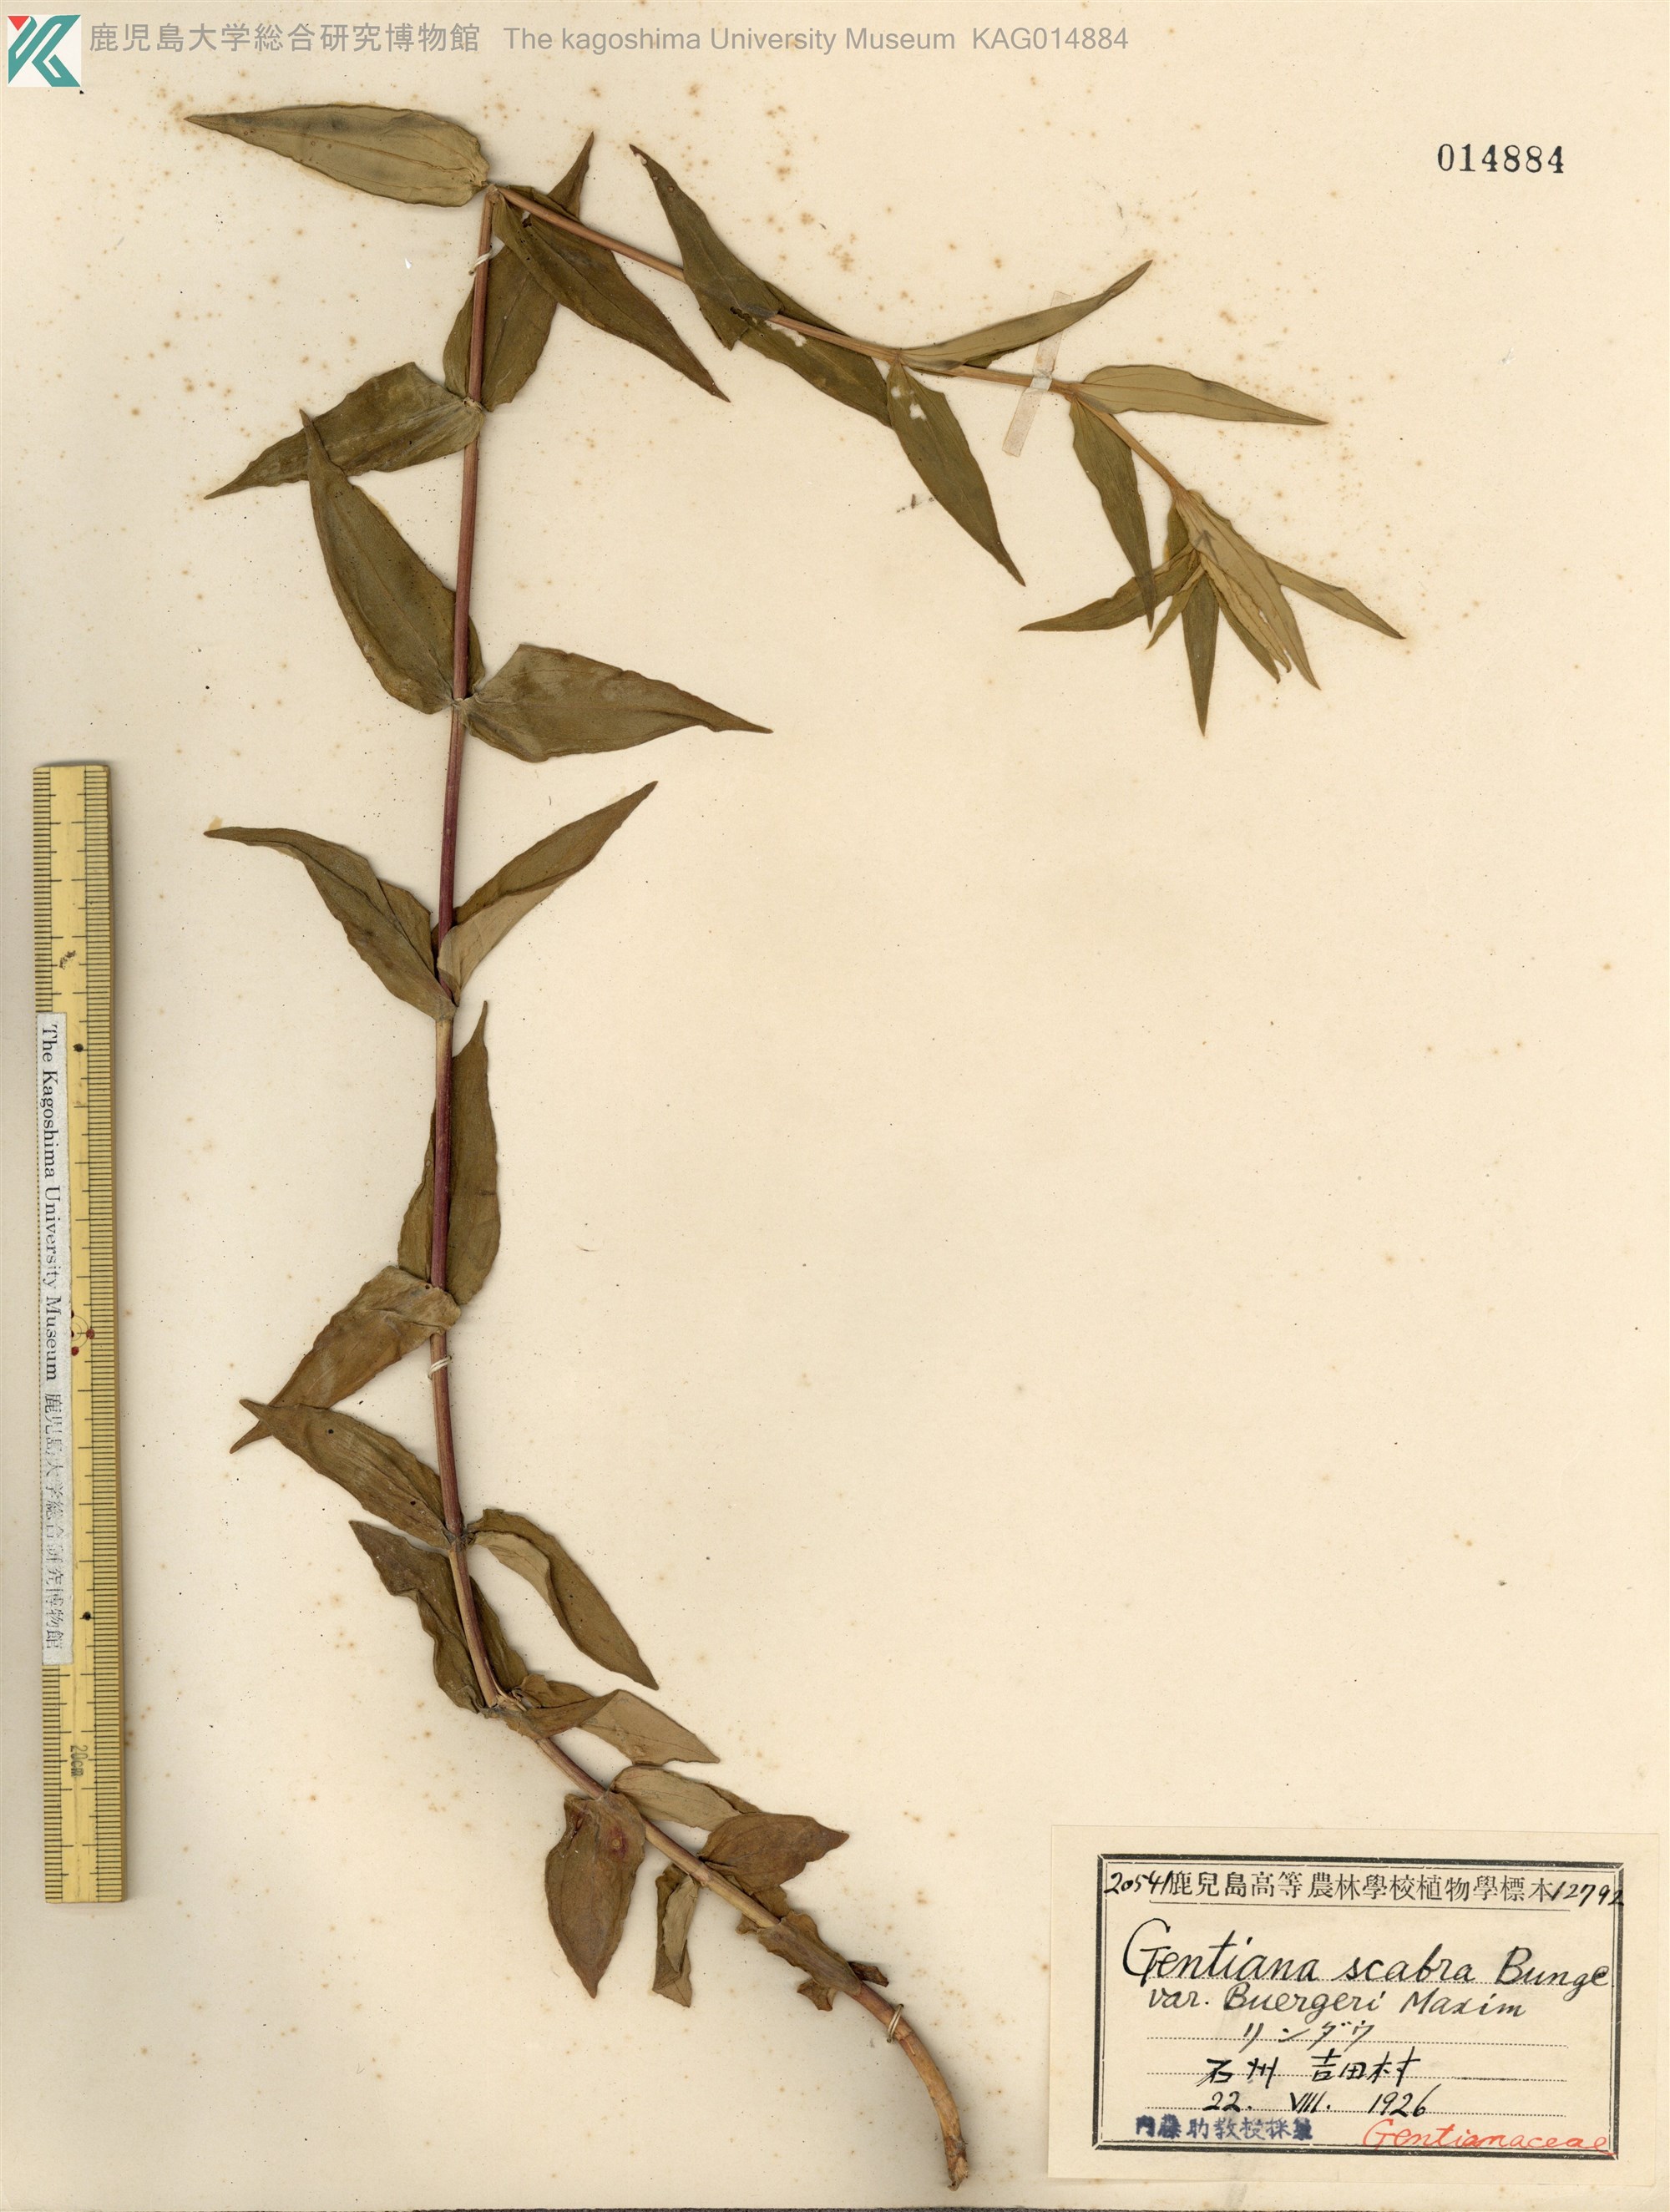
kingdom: Plantae
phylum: Tracheophyta
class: Magnoliopsida
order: Gentianales
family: Gentianaceae
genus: Gentiana
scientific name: Gentiana scabra
